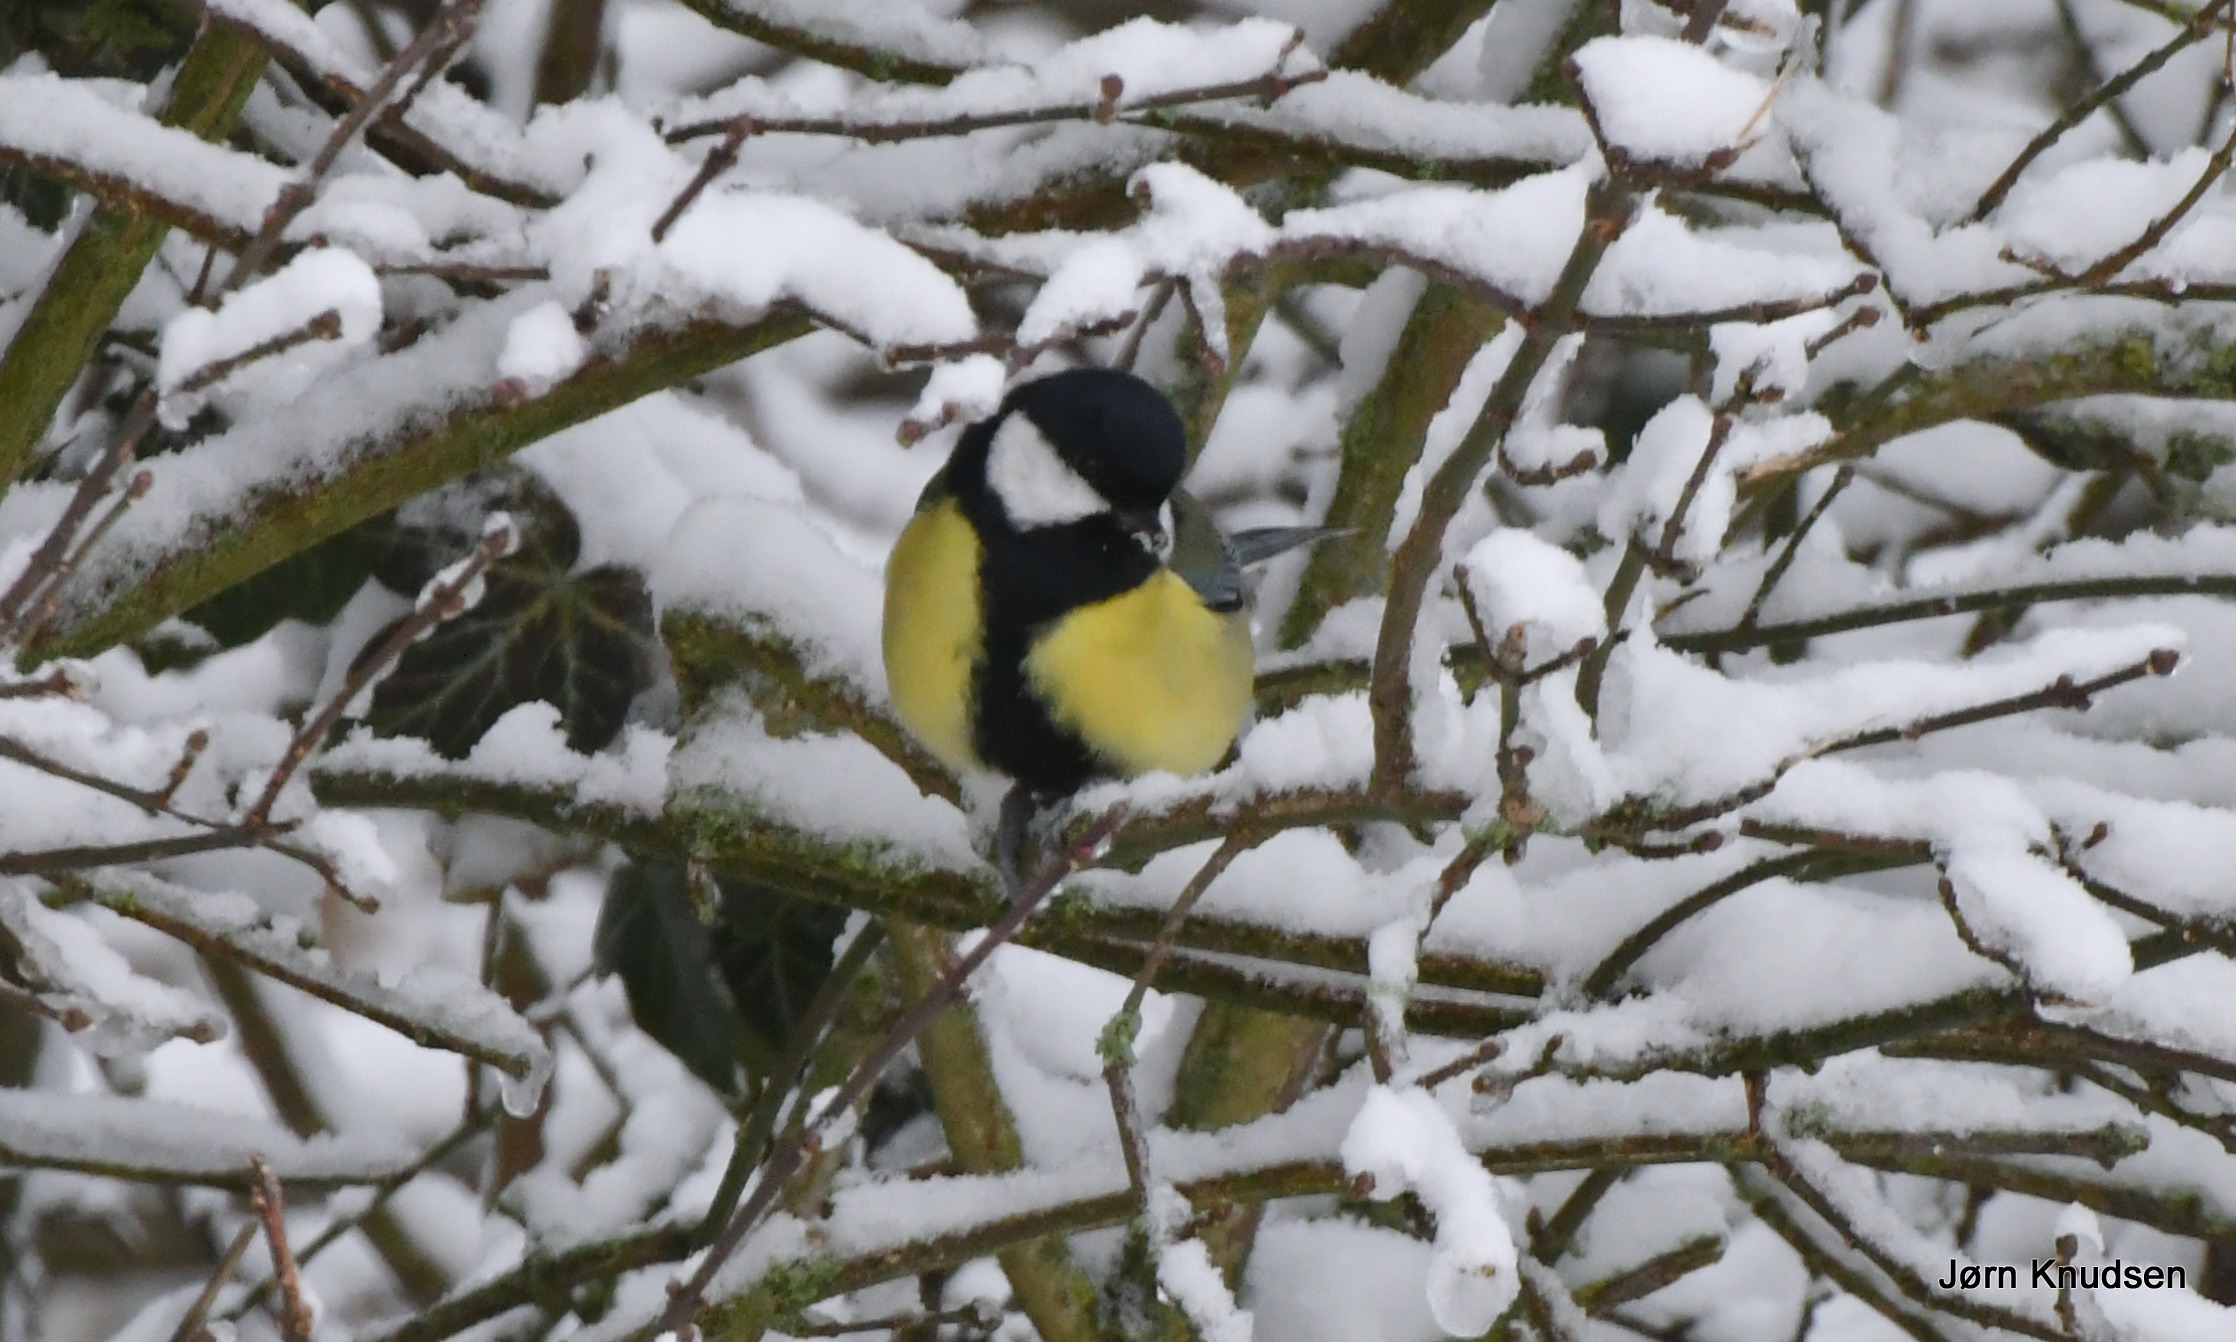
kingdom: Animalia
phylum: Chordata
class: Aves
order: Passeriformes
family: Paridae
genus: Parus
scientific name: Parus major
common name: Musvit
